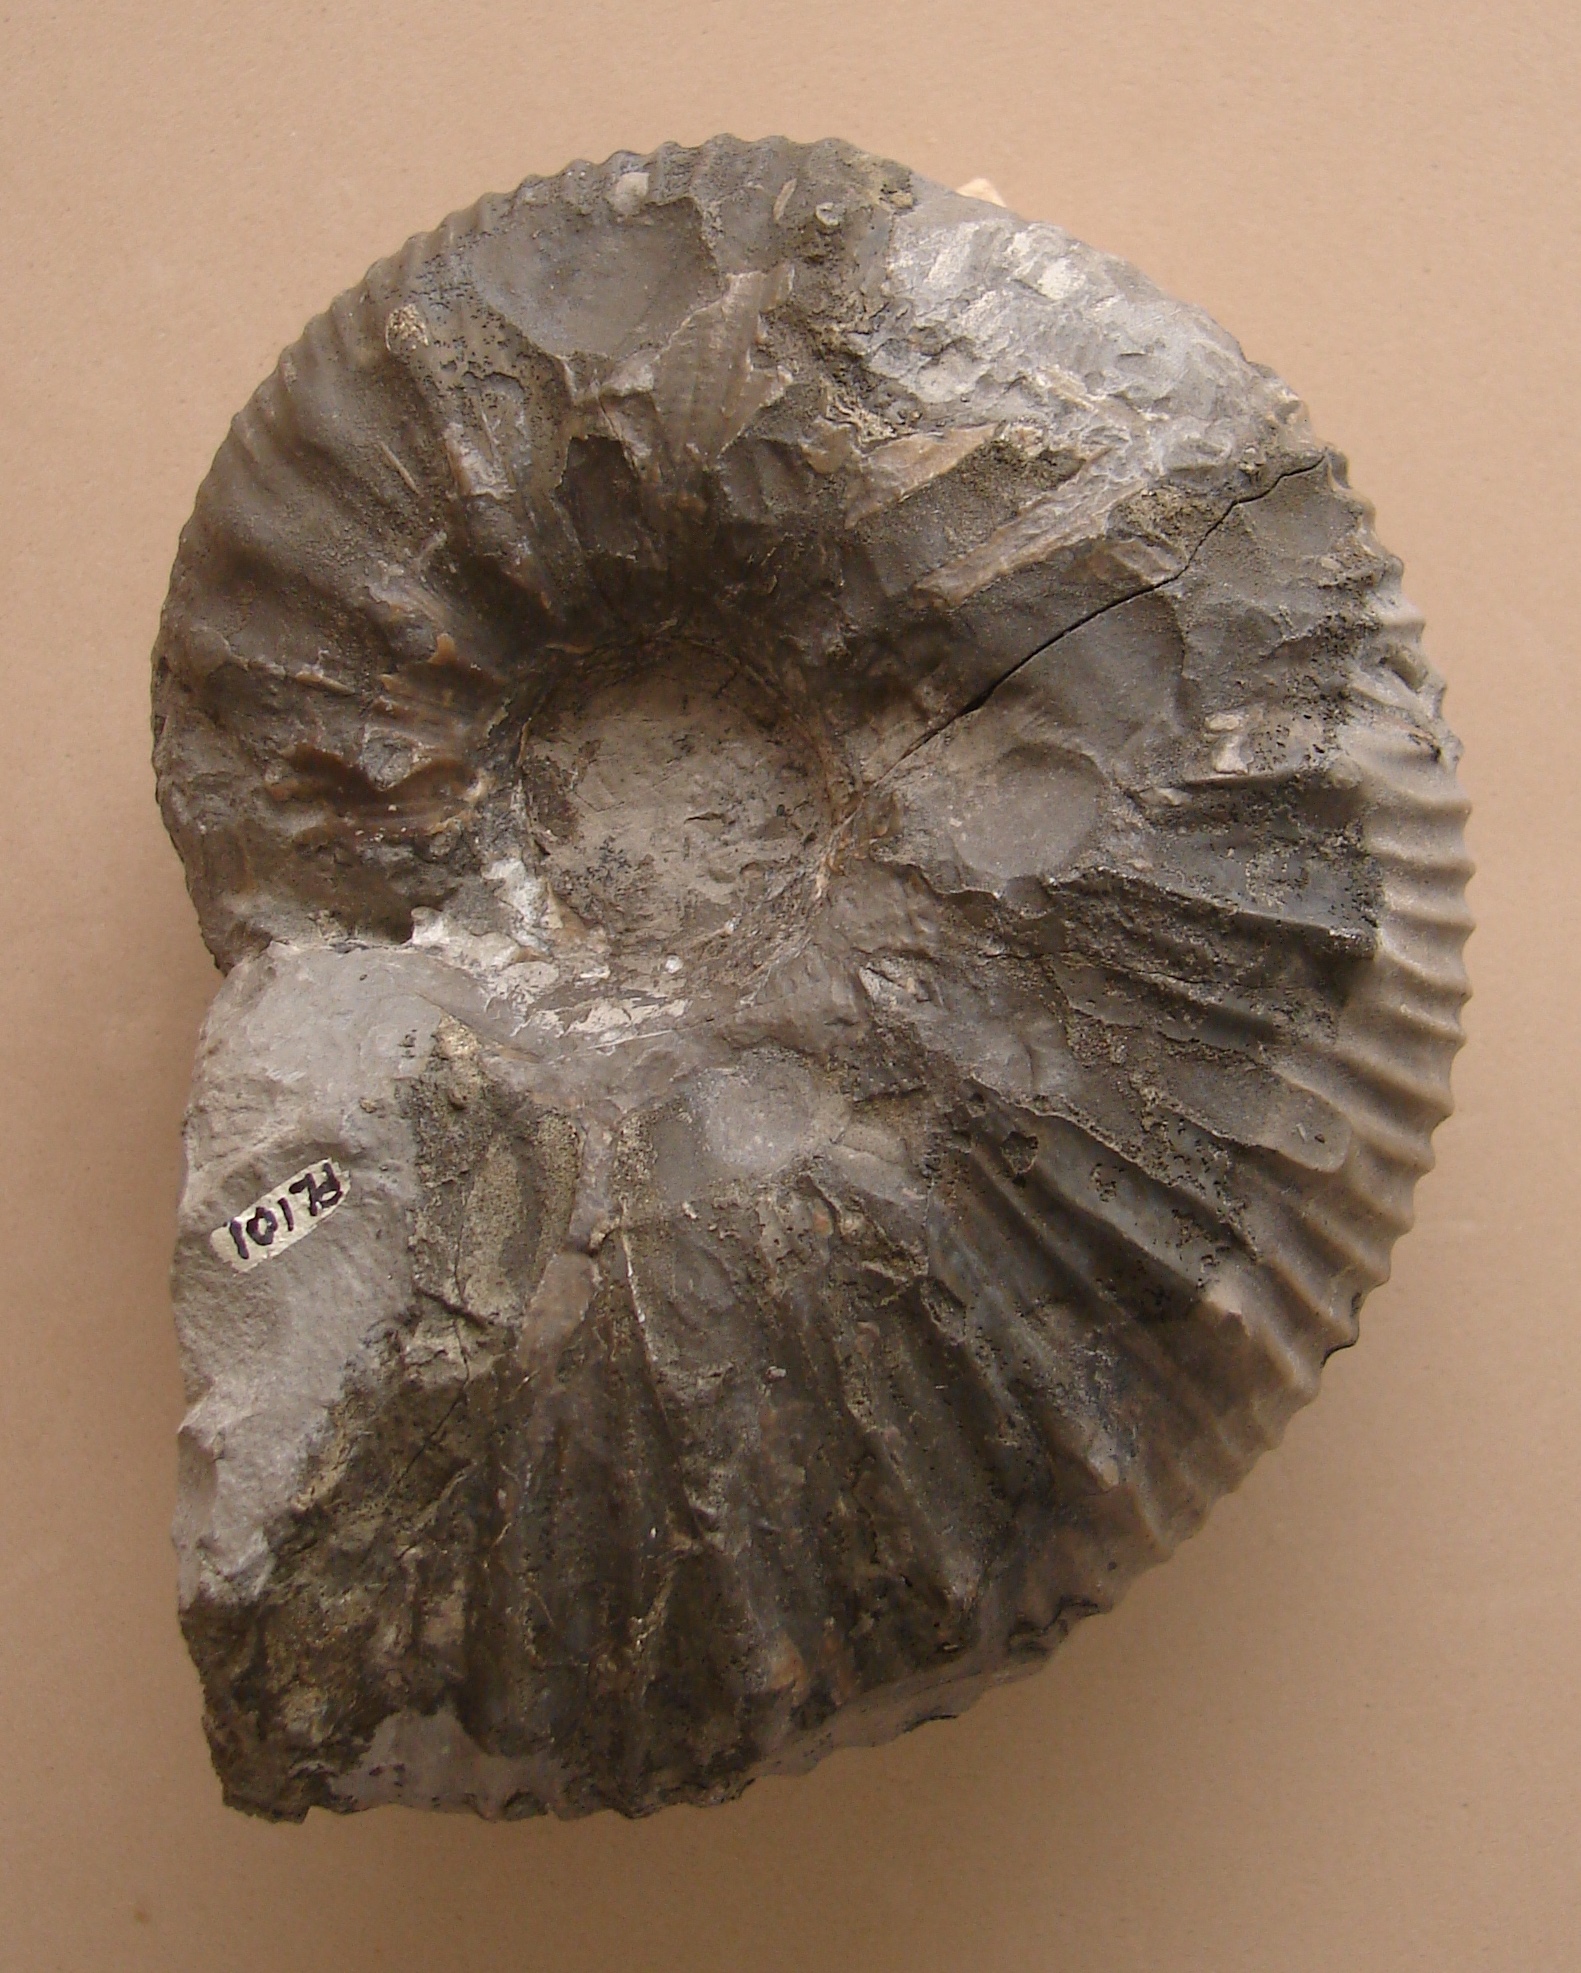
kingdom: Animalia
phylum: Mollusca
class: Cephalopoda
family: Liparoceratidae
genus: Liparoceras
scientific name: Liparoceras
